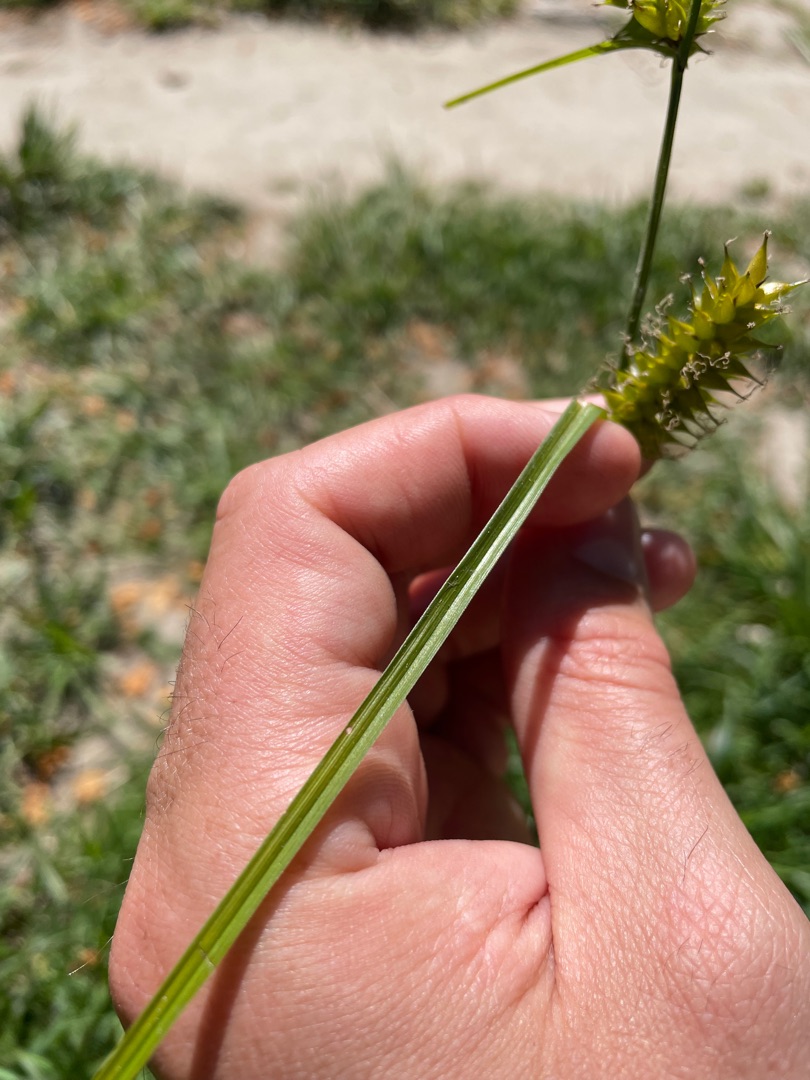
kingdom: Plantae
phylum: Tracheophyta
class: Liliopsida
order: Poales
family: Cyperaceae
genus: Carex
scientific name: Carex vesicaria
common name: Blære-star
